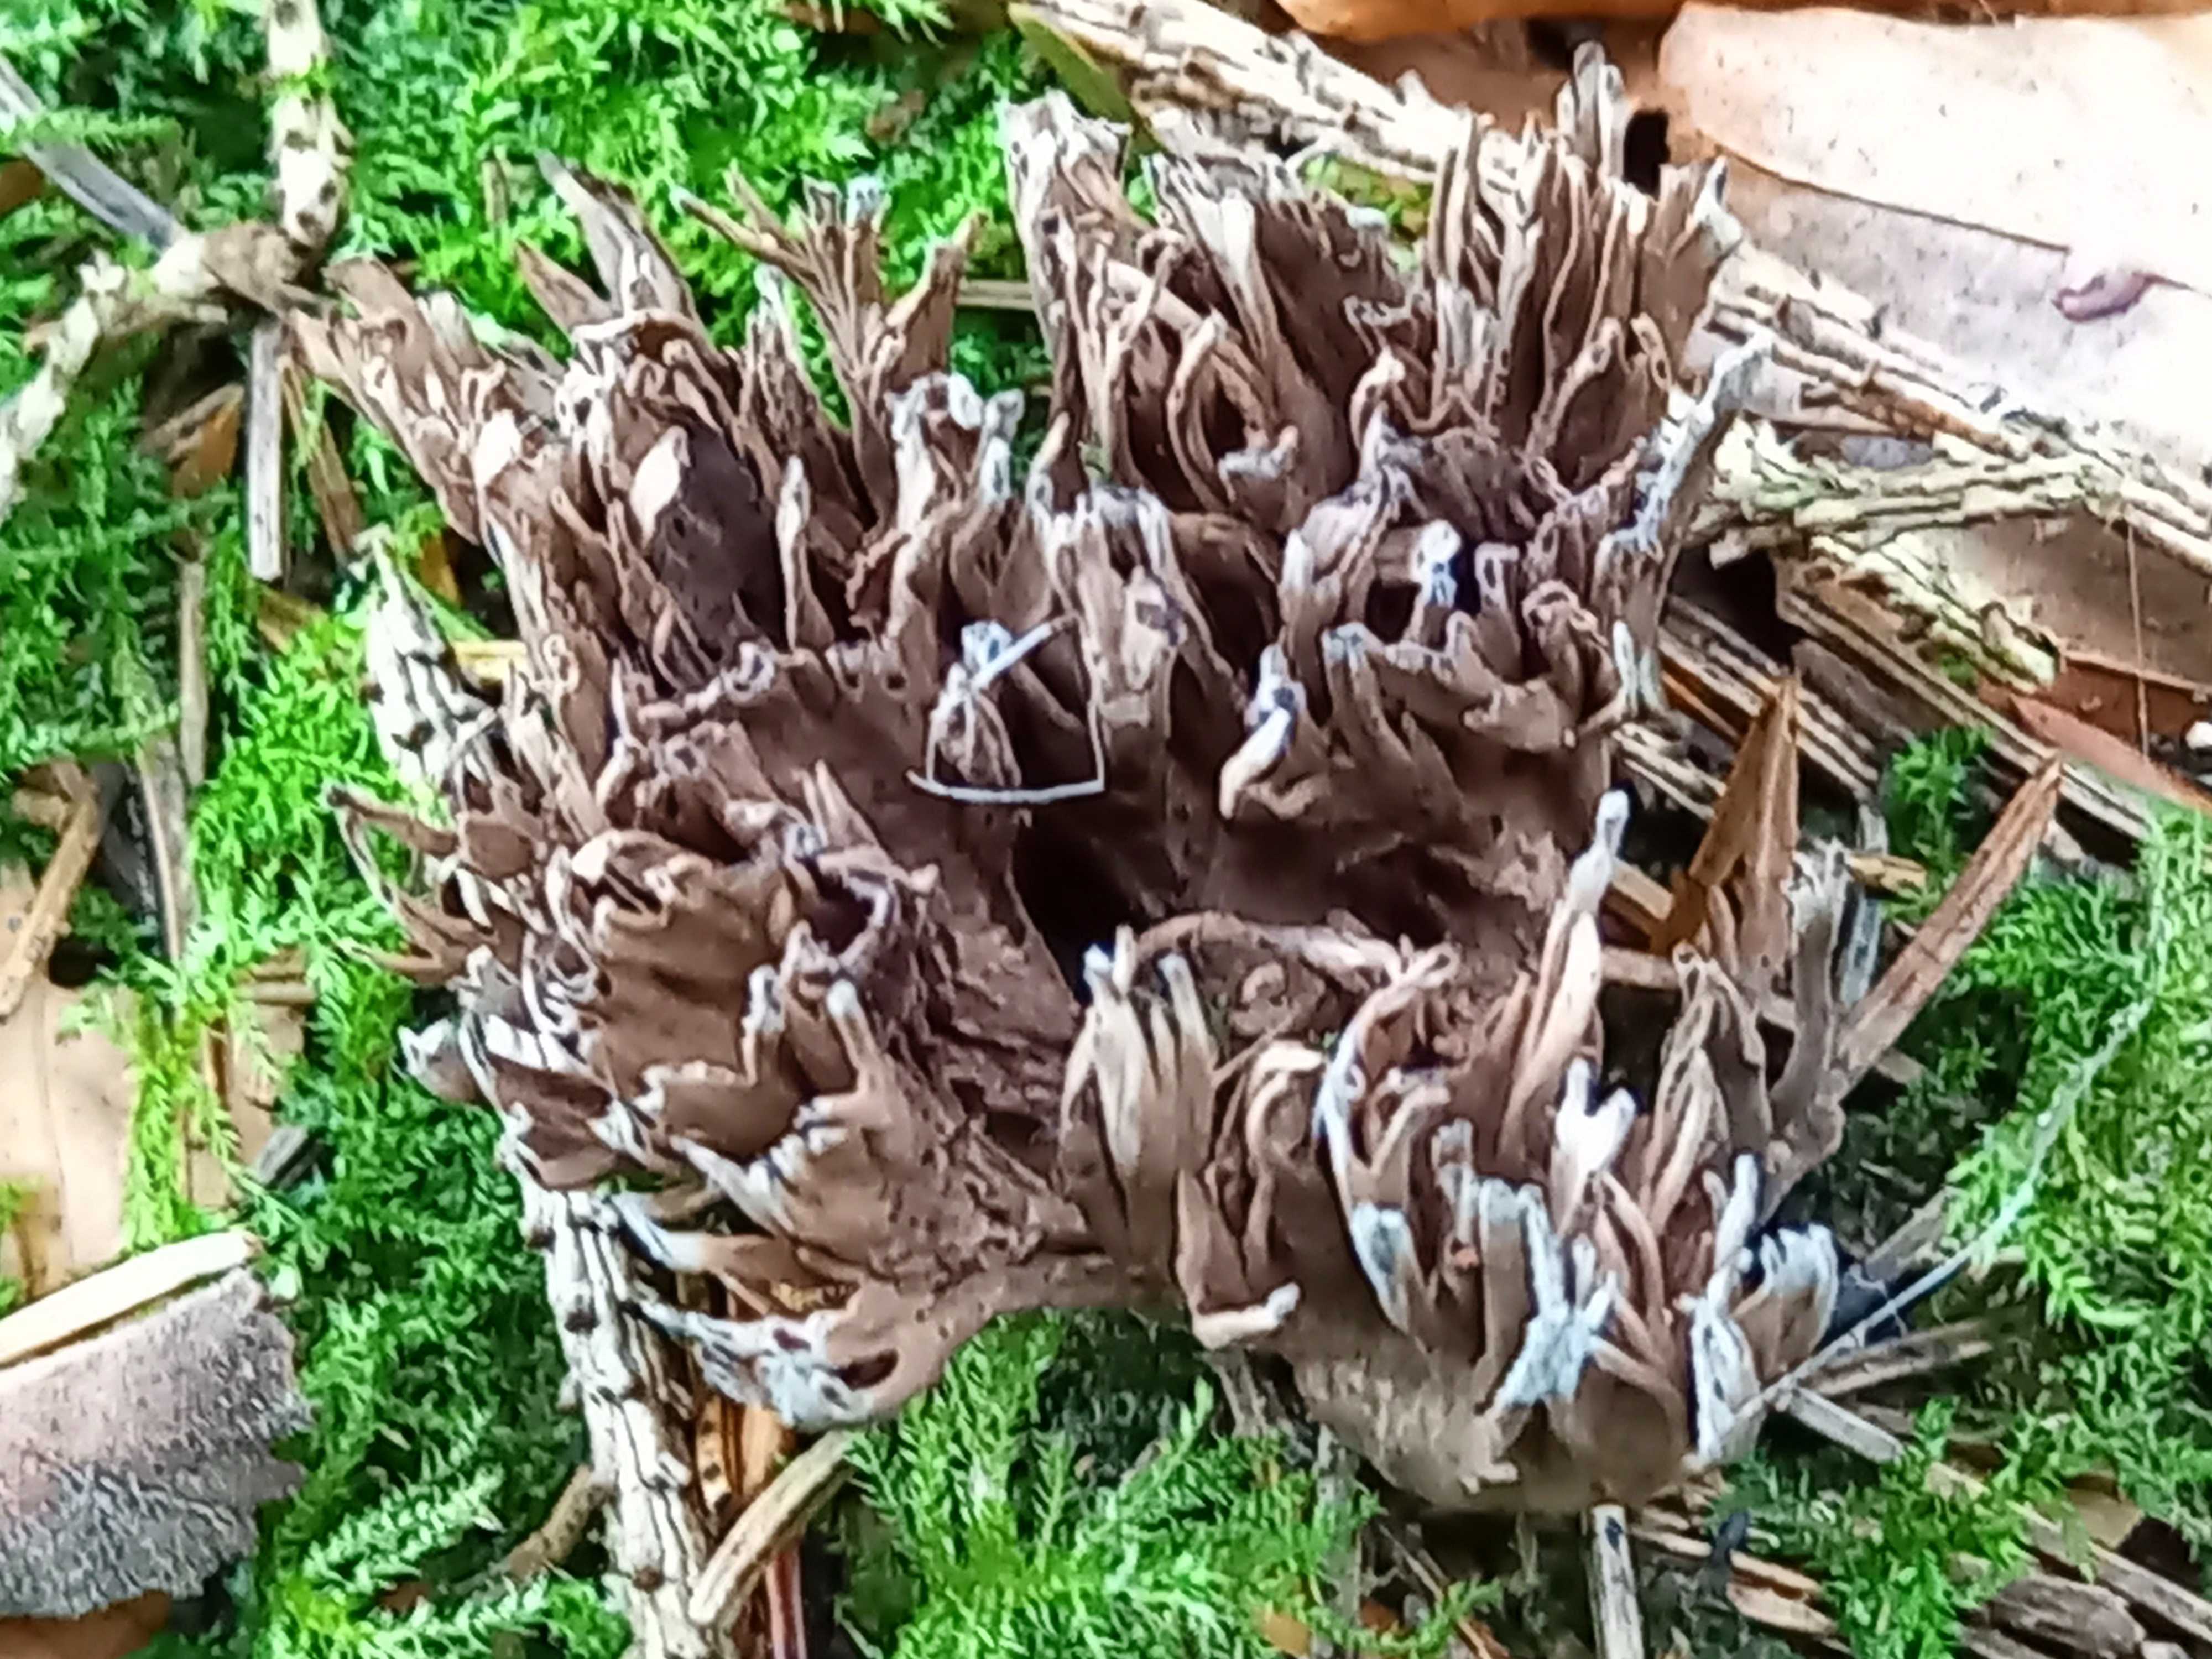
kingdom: Fungi
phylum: Basidiomycota
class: Agaricomycetes
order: Thelephorales
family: Thelephoraceae
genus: Thelephora
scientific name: Thelephora palmata
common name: grenet frynsesvamp
